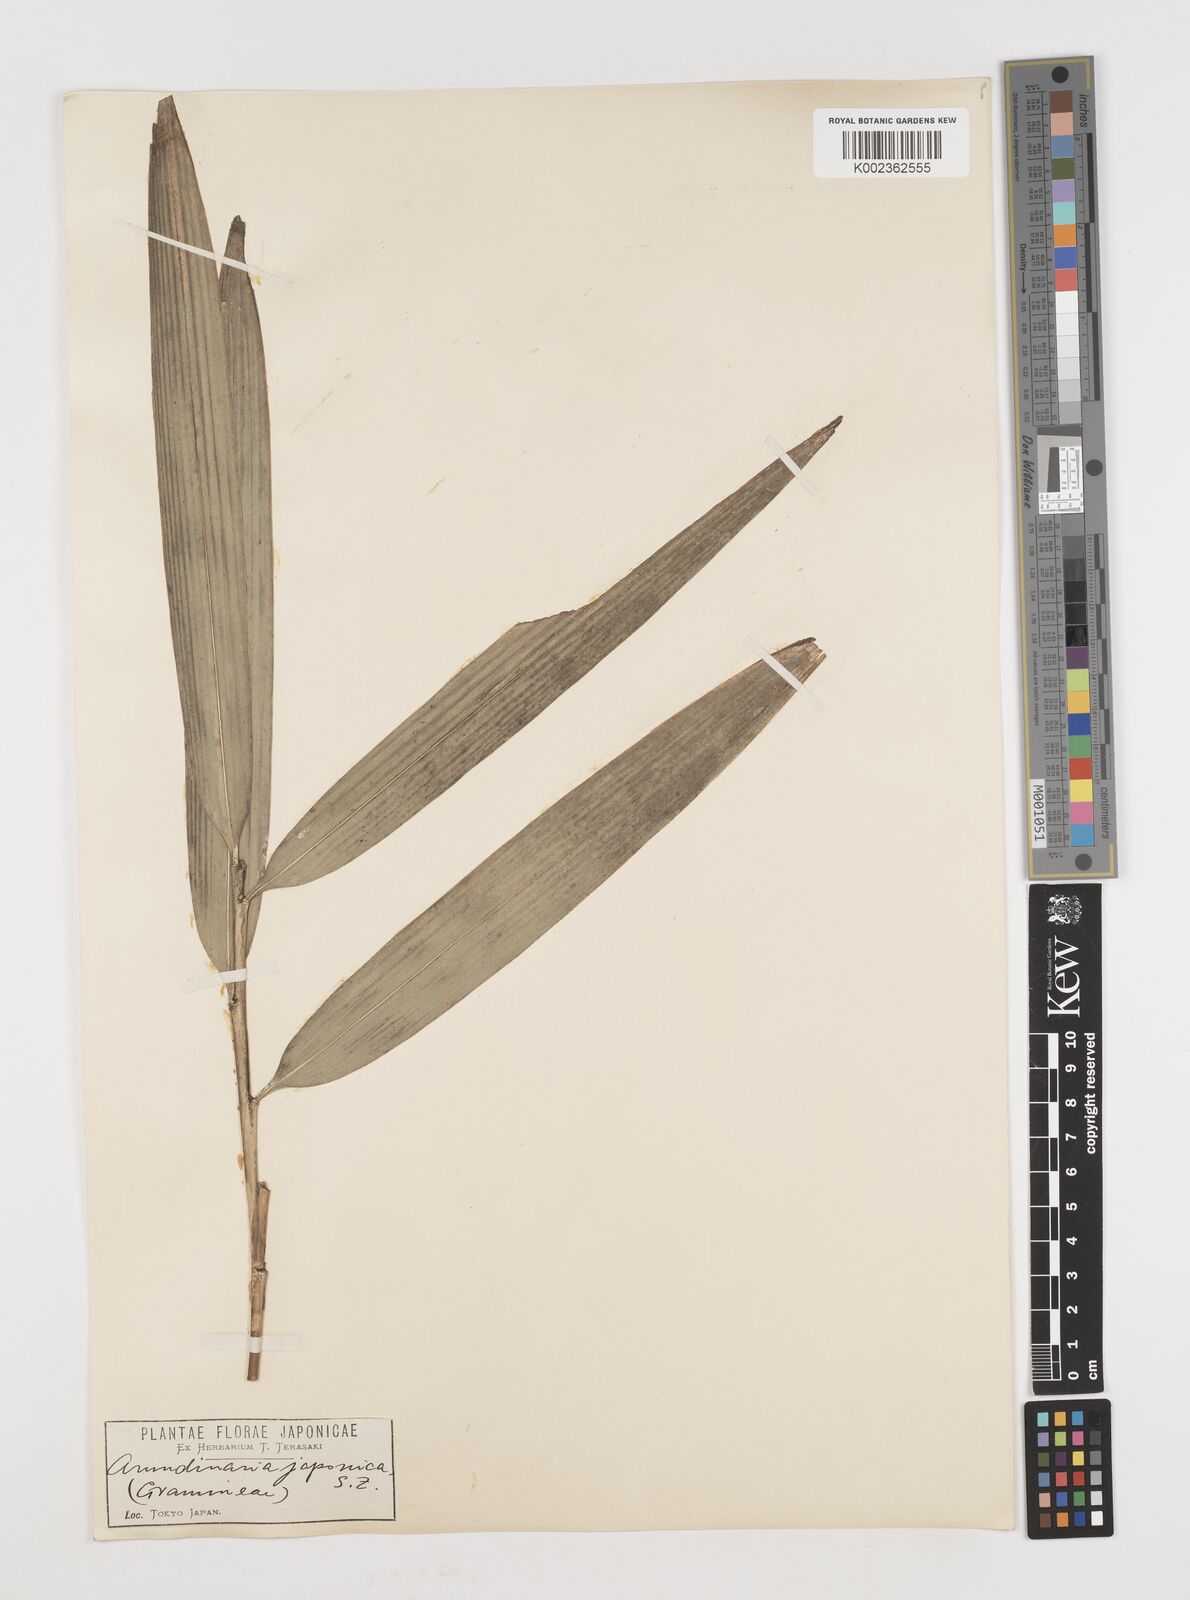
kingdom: Plantae
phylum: Tracheophyta
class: Liliopsida
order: Poales
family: Poaceae
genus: Pseudosasa
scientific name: Pseudosasa japonica
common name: Arrow bamboo
